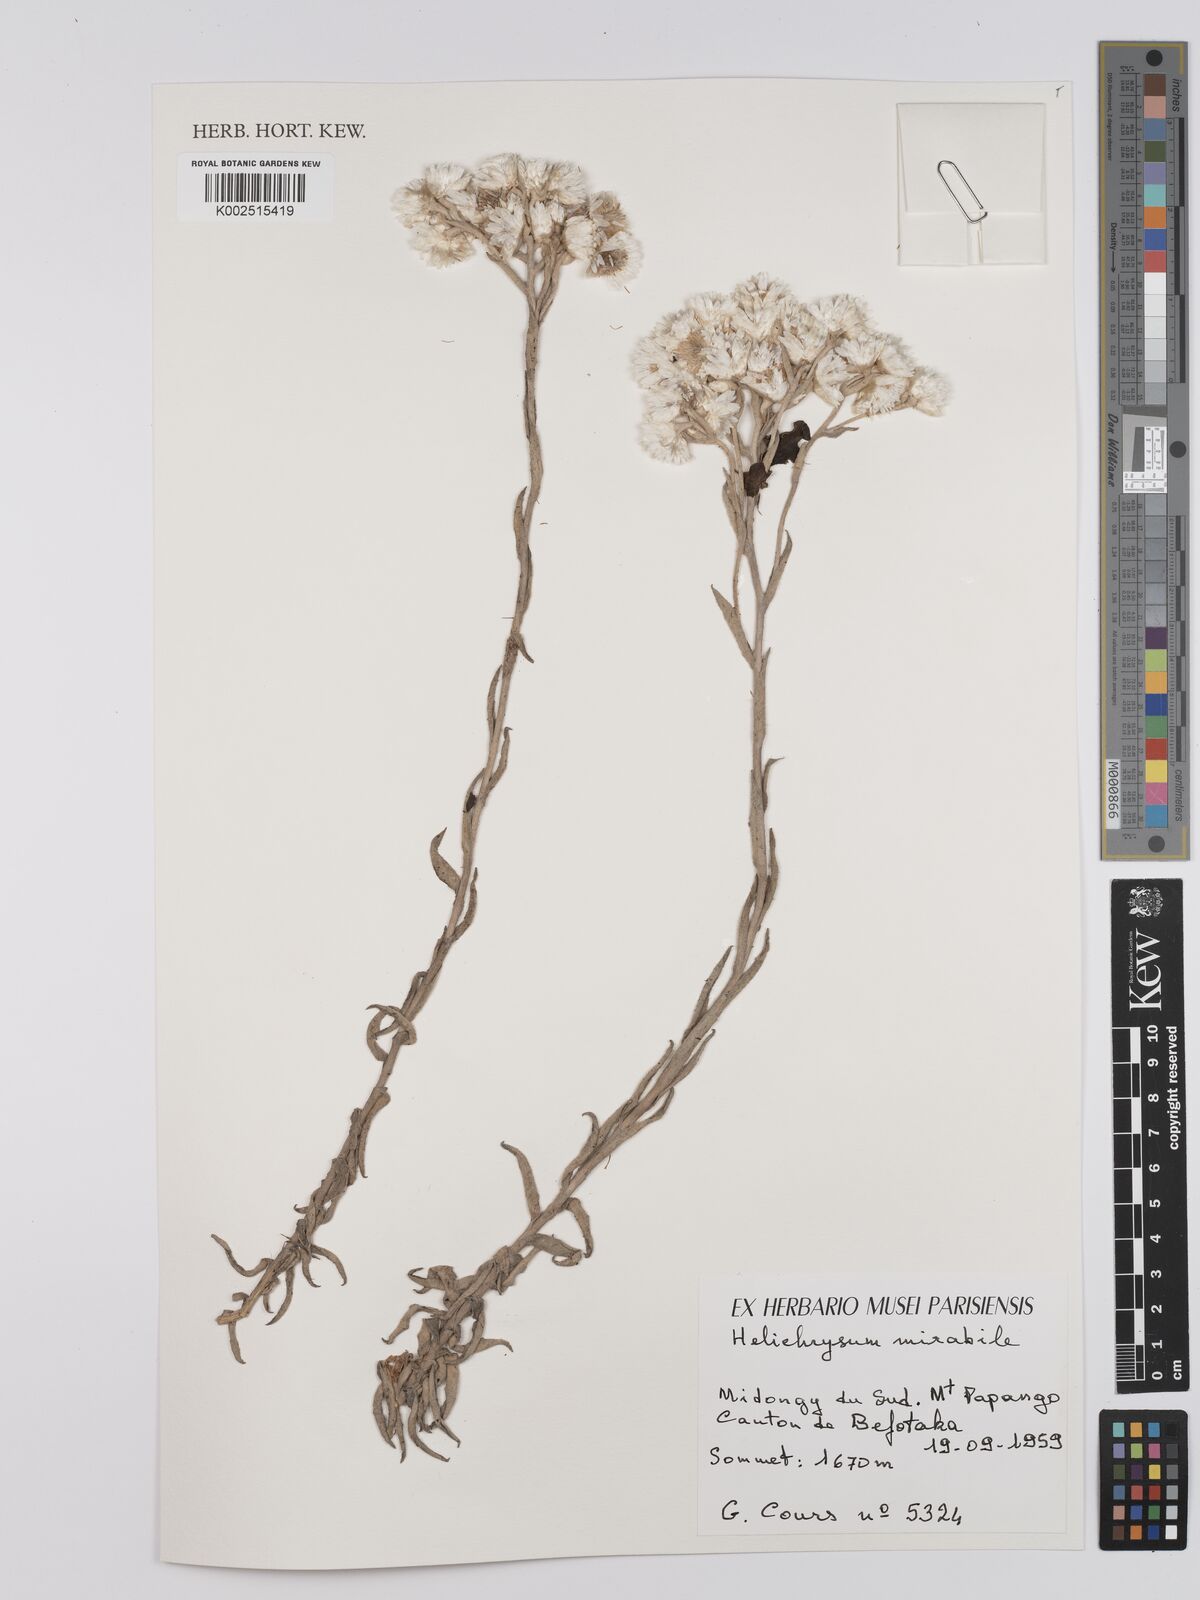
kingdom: Plantae
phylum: Tracheophyta
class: Magnoliopsida
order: Asterales
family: Asteraceae
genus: Helichrysum
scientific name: Helichrysum mirabile
